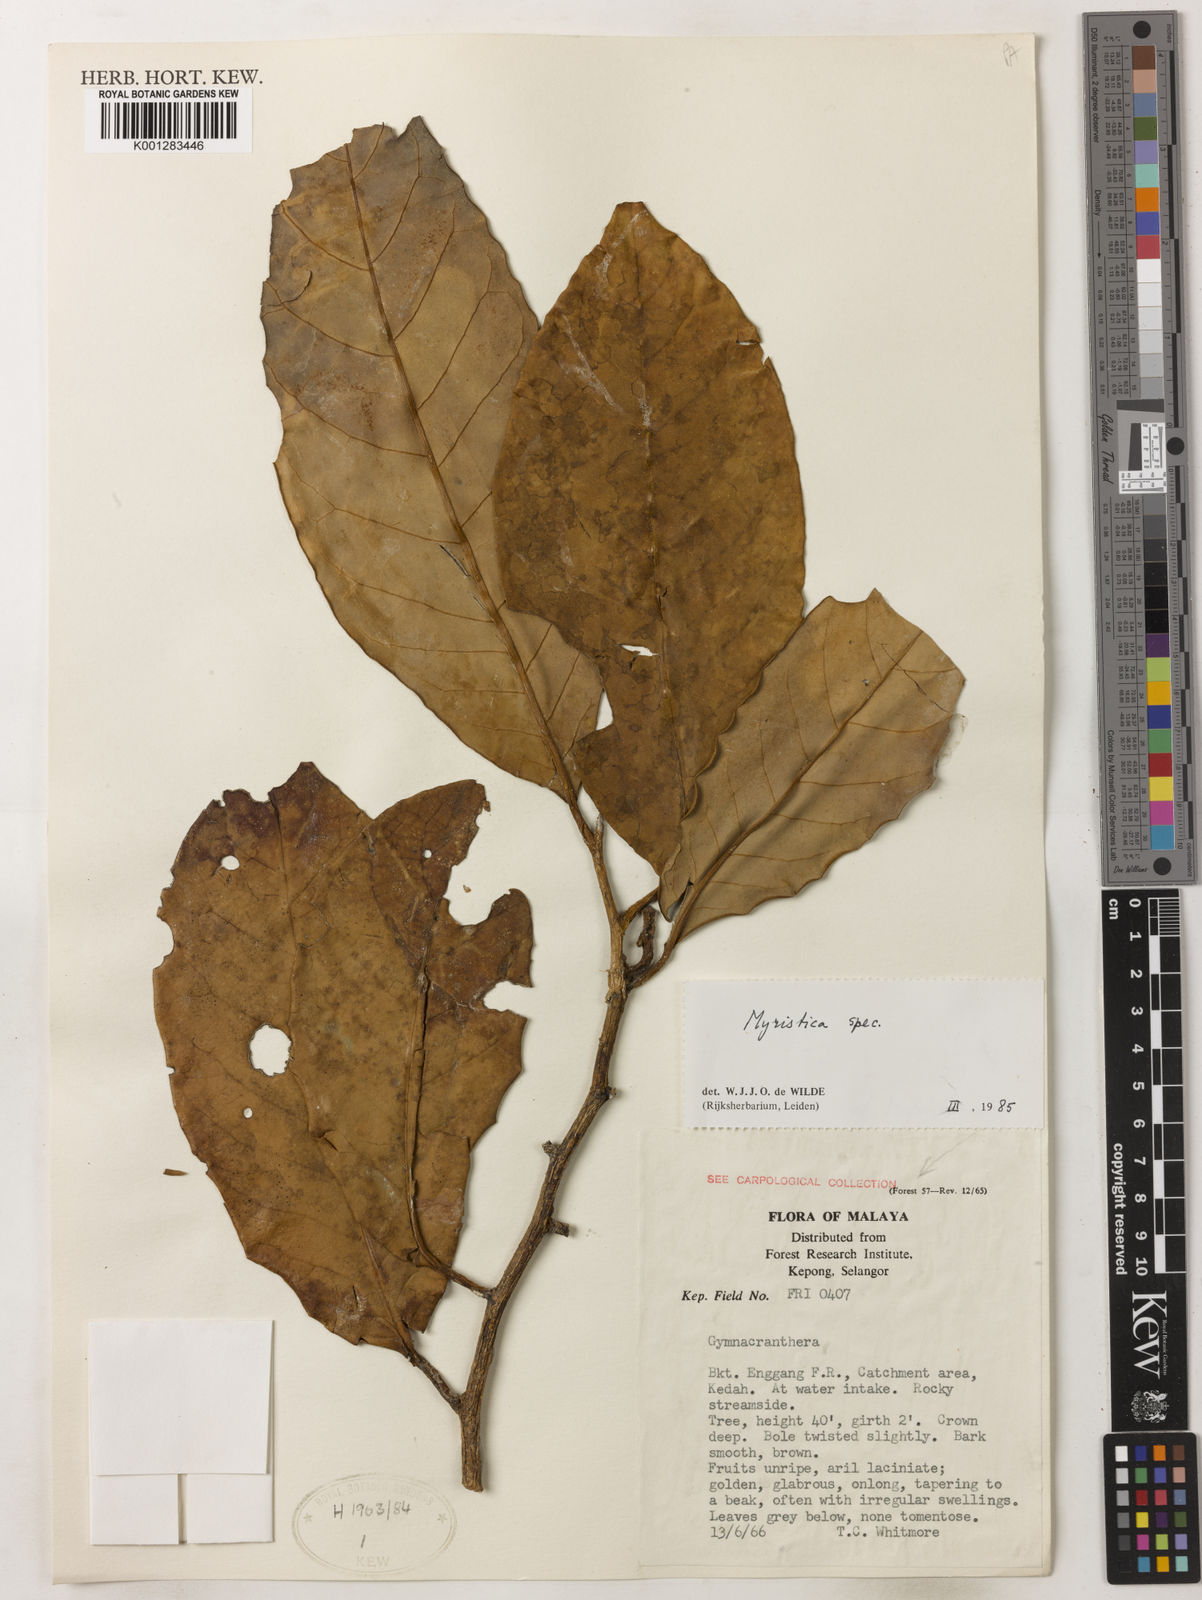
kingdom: Plantae
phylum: Tracheophyta
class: Magnoliopsida
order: Magnoliales
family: Myristicaceae
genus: Myristica
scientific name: Myristica
